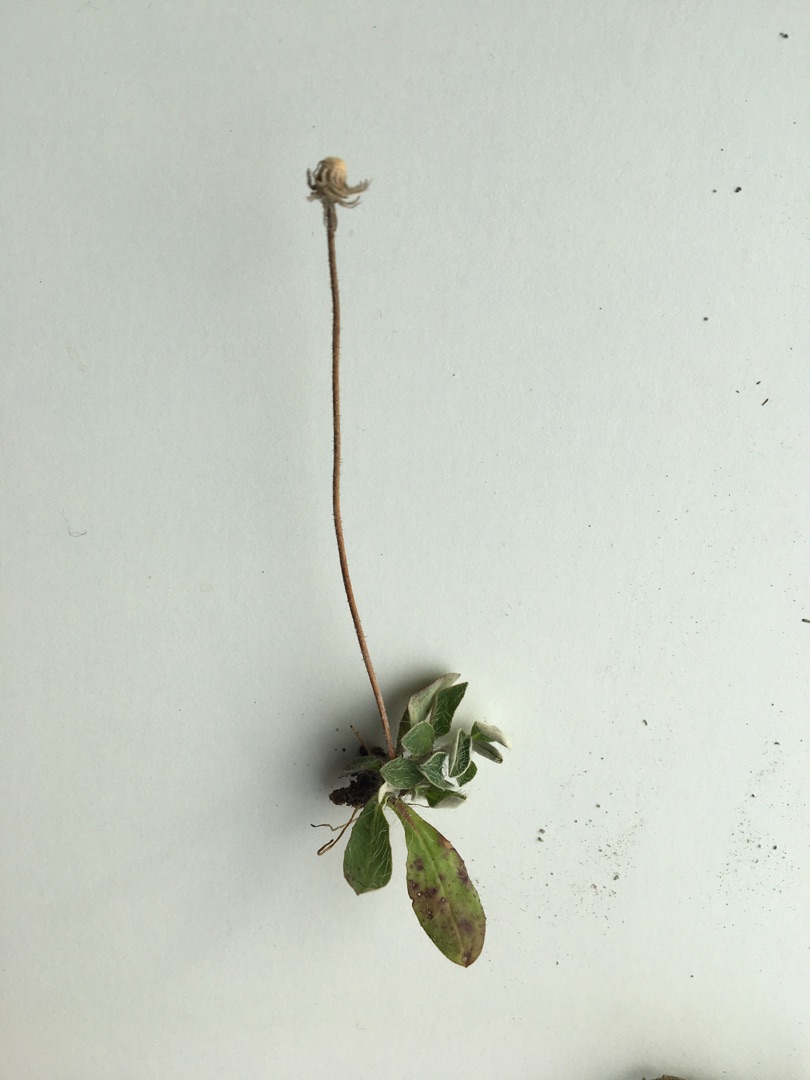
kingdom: Plantae
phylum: Tracheophyta
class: Magnoliopsida
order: Asterales
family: Asteraceae
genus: Pilosella
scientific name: Pilosella officinarum
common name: Håret høgeurt
